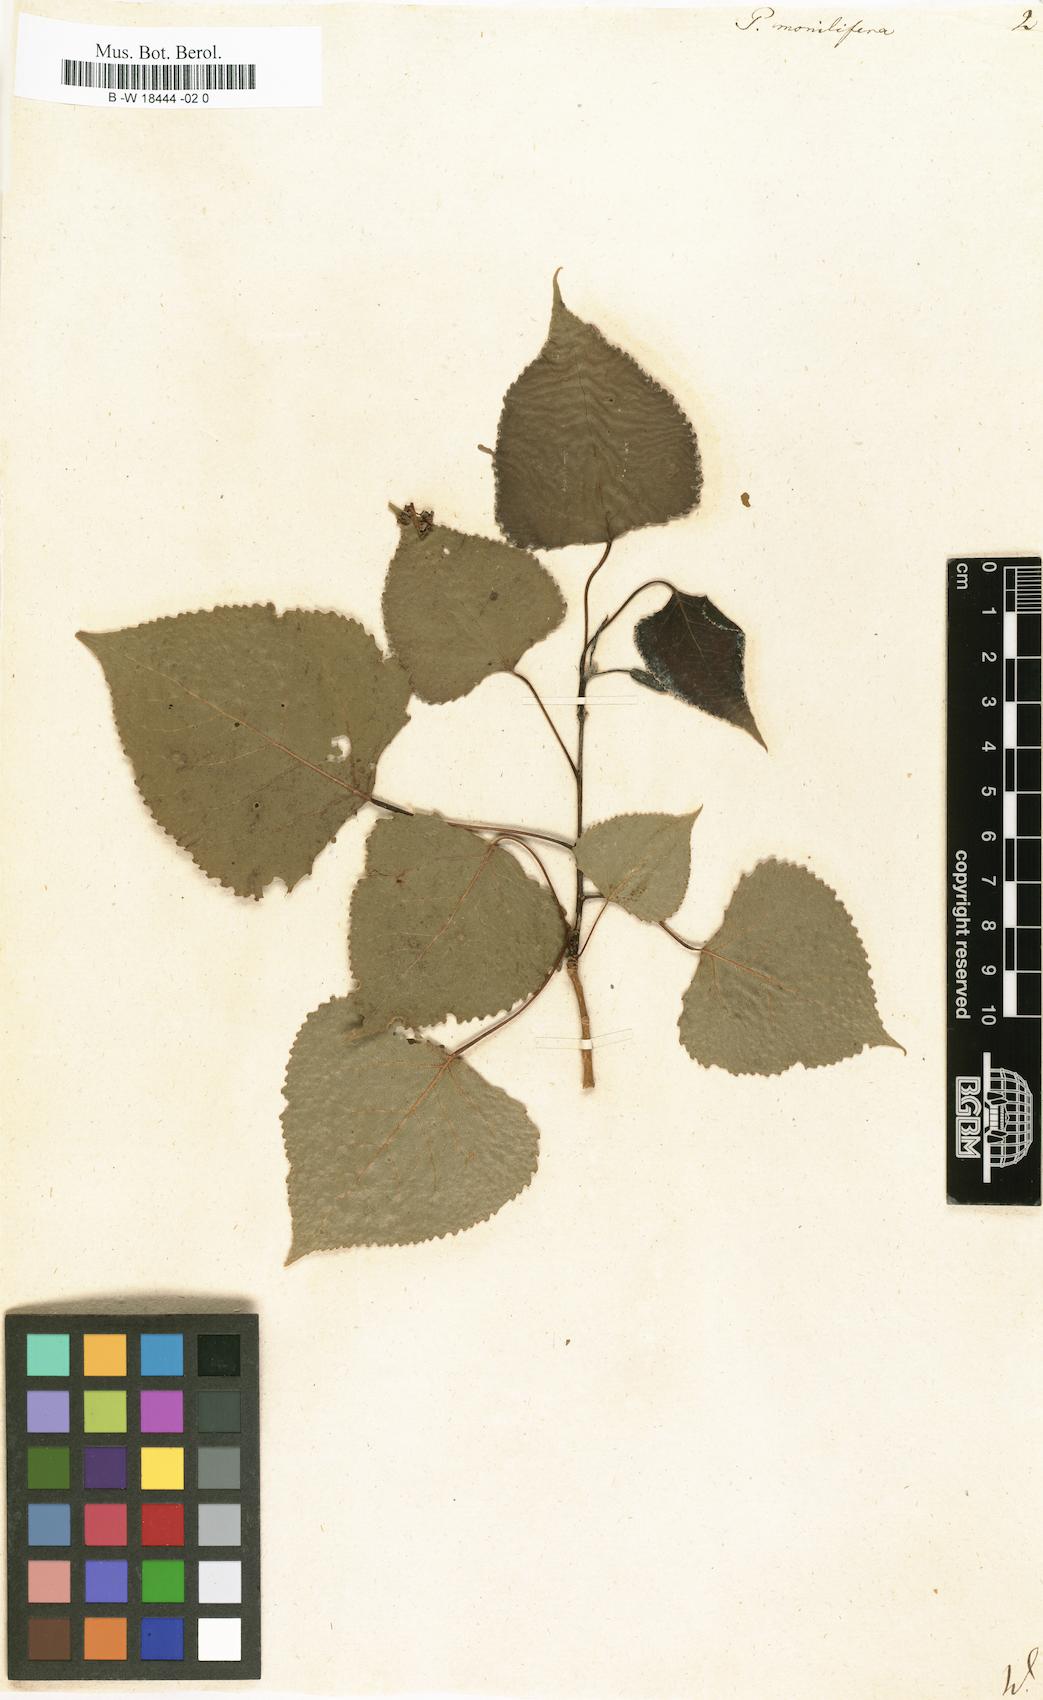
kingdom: Plantae
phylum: Tracheophyta
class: Magnoliopsida
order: Malpighiales
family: Salicaceae
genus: Populus
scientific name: Populus deltoides
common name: Eastern cottonwood
